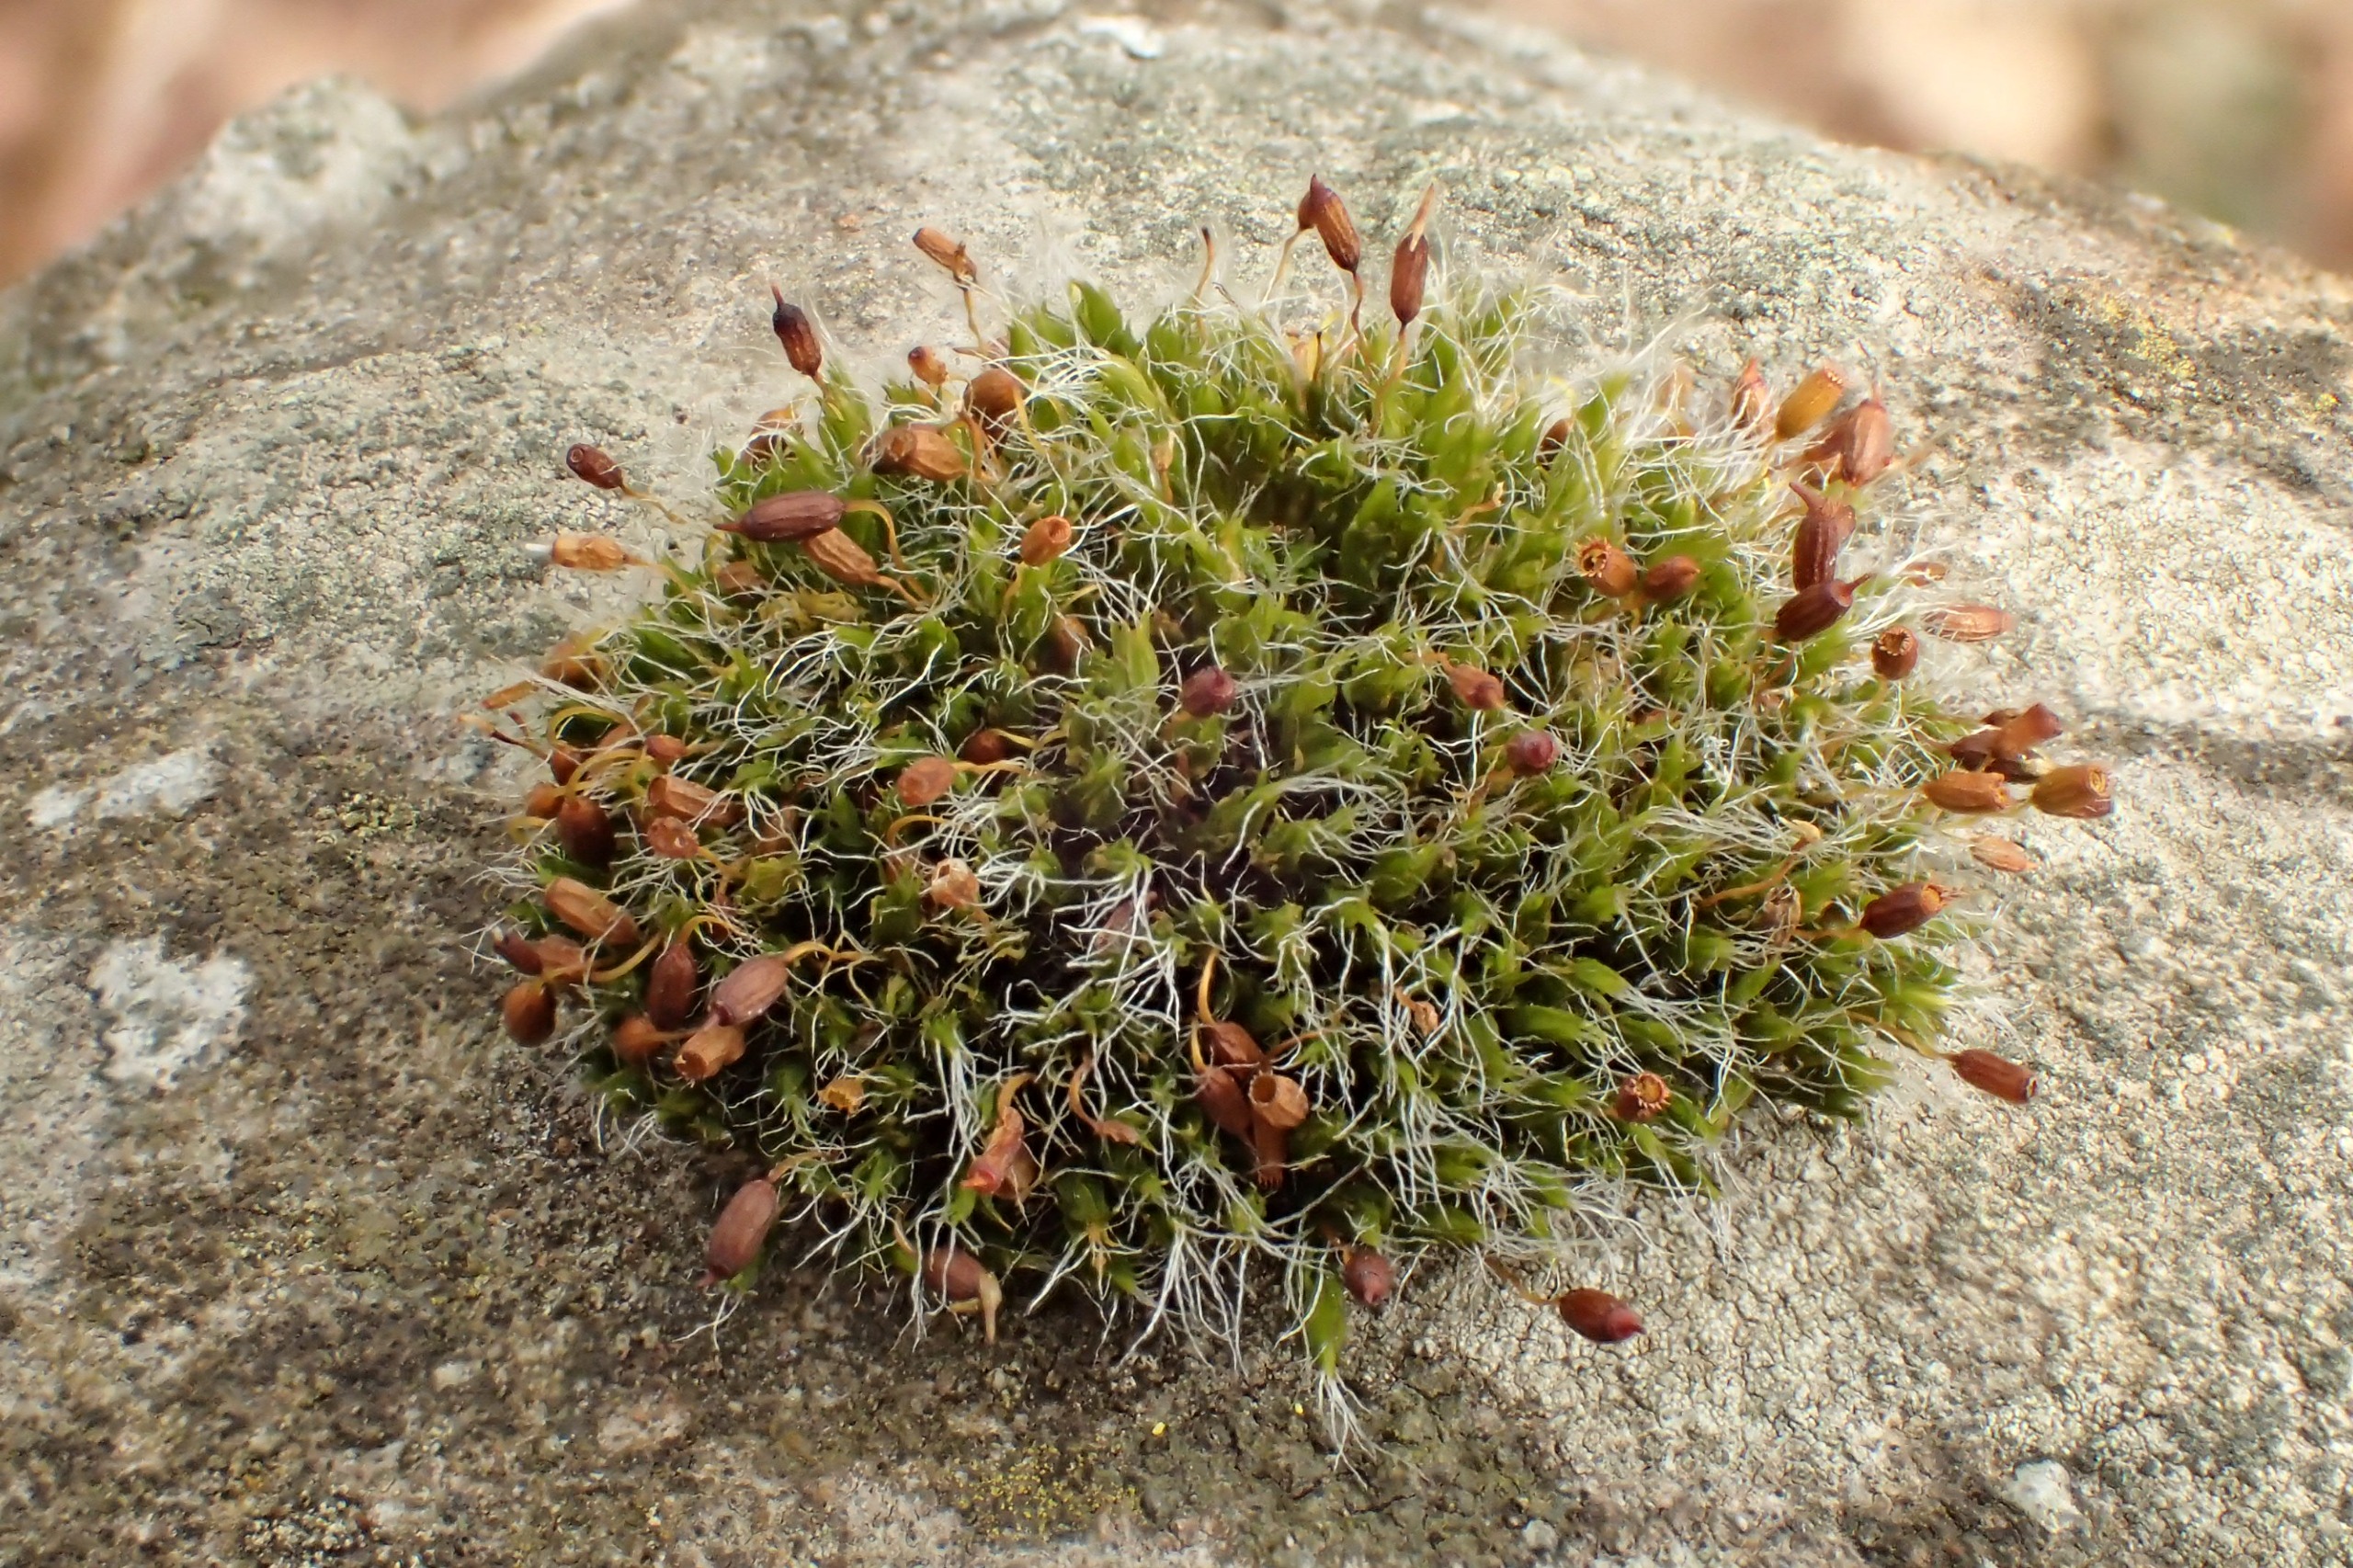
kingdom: Plantae
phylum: Bryophyta
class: Bryopsida
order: Grimmiales
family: Grimmiaceae
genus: Grimmia
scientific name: Grimmia pulvinata
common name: Pude-gråmos
